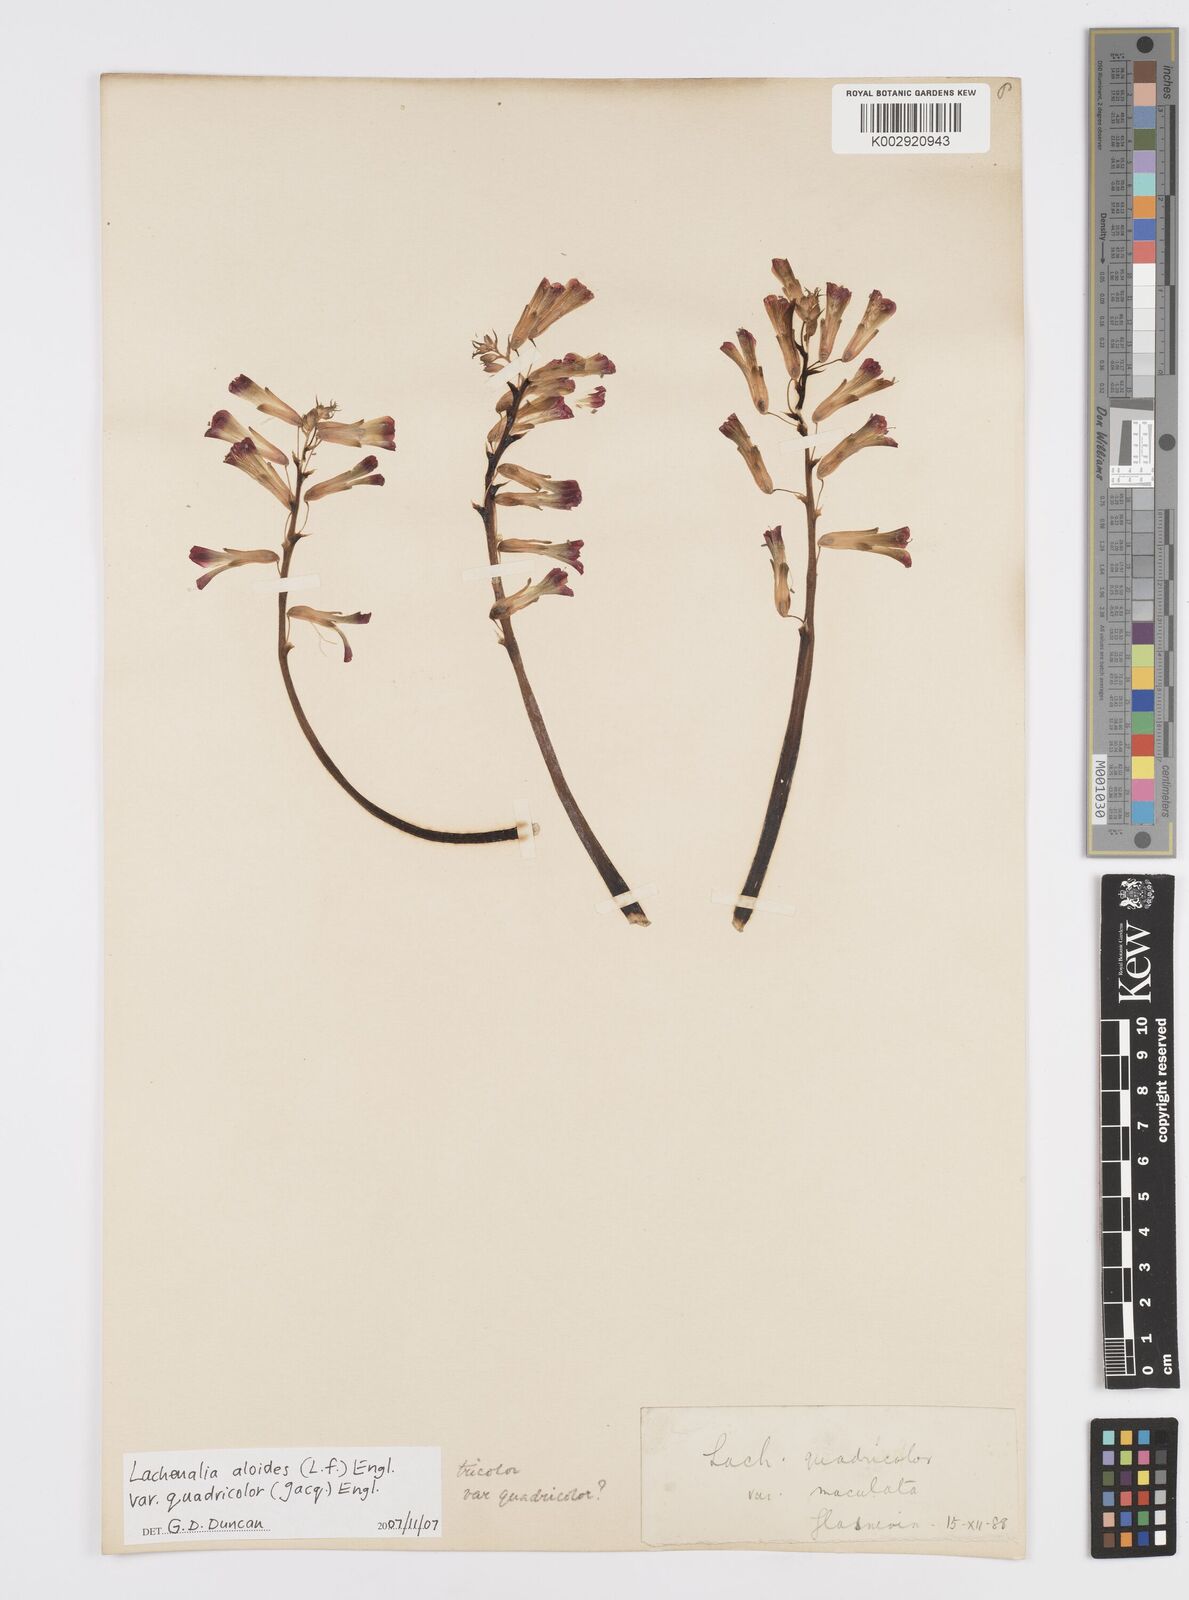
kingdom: Plantae
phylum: Tracheophyta
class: Liliopsida
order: Asparagales
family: Asparagaceae
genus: Lachenalia
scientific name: Lachenalia aloides
